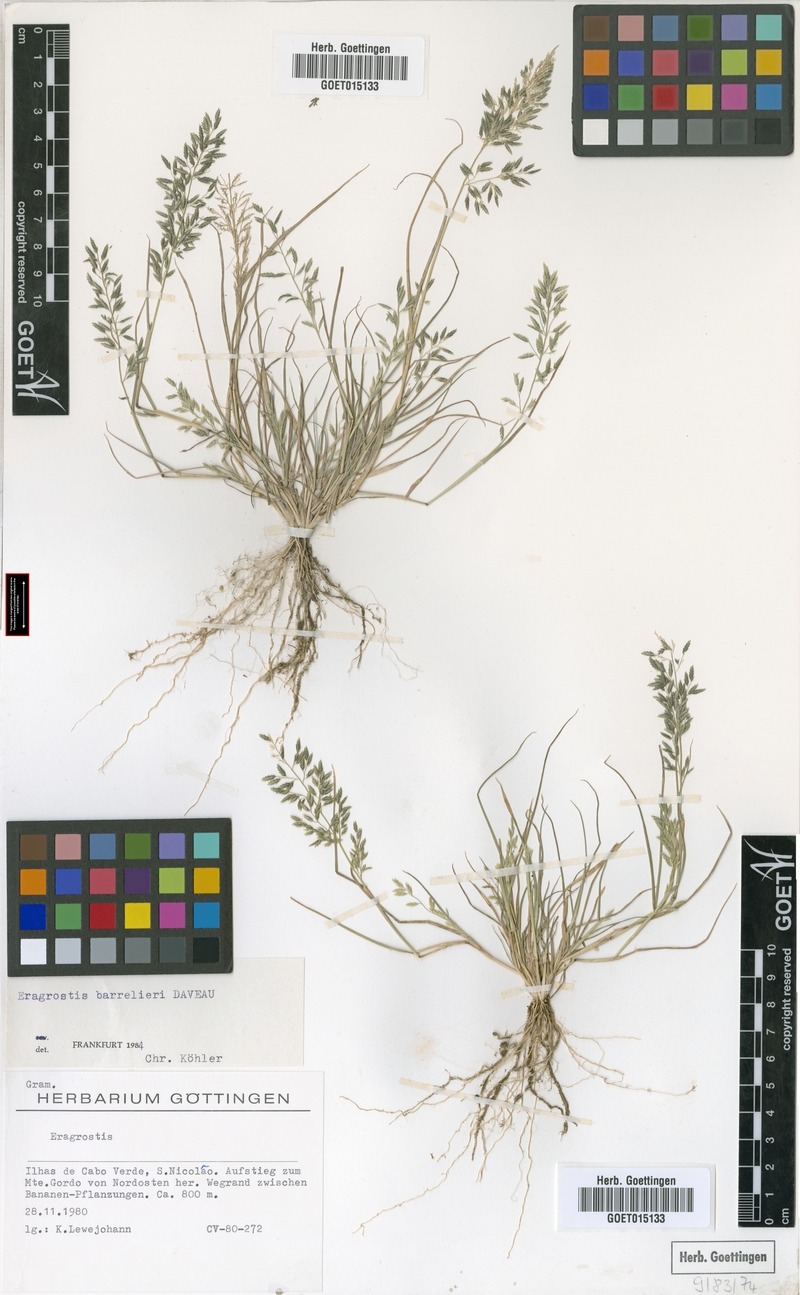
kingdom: Plantae
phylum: Tracheophyta
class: Liliopsida
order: Poales
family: Poaceae
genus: Eragrostis
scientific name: Eragrostis barrelieri
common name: Mediterranean lovegrass
